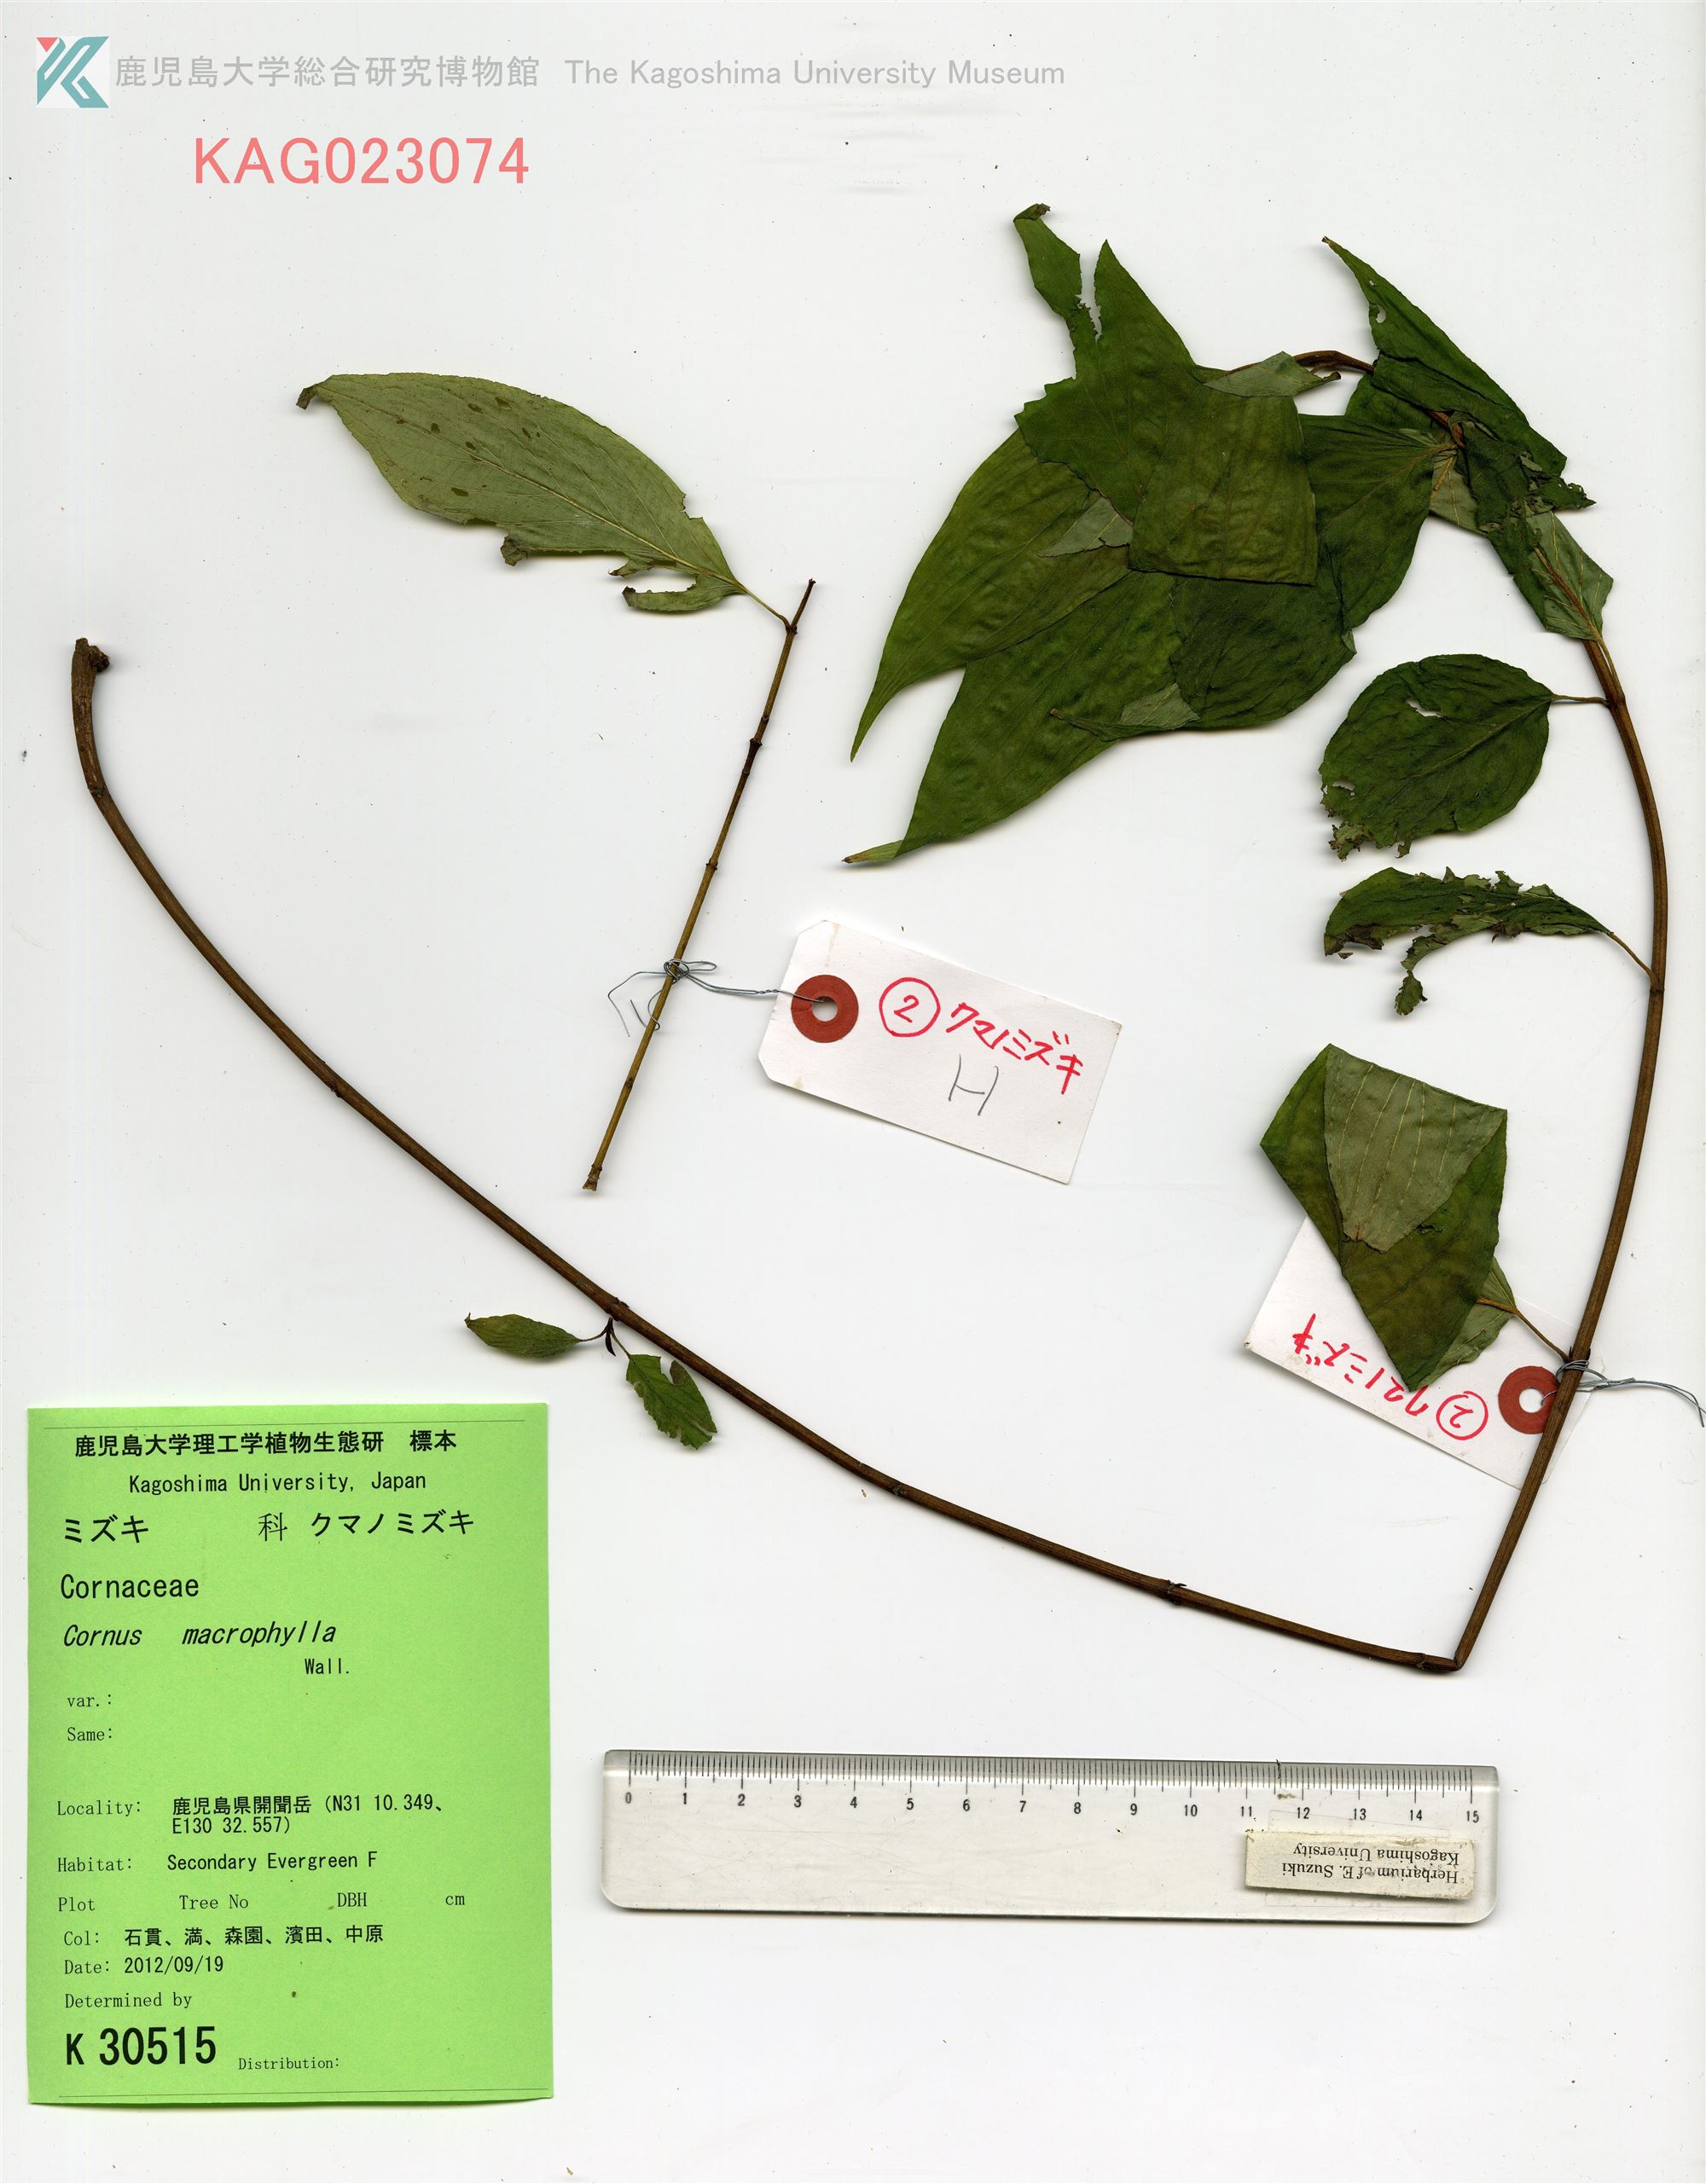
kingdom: Plantae
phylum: Tracheophyta
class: Magnoliopsida
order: Cornales
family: Cornaceae
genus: Cornus
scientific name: Cornus macrophylla
